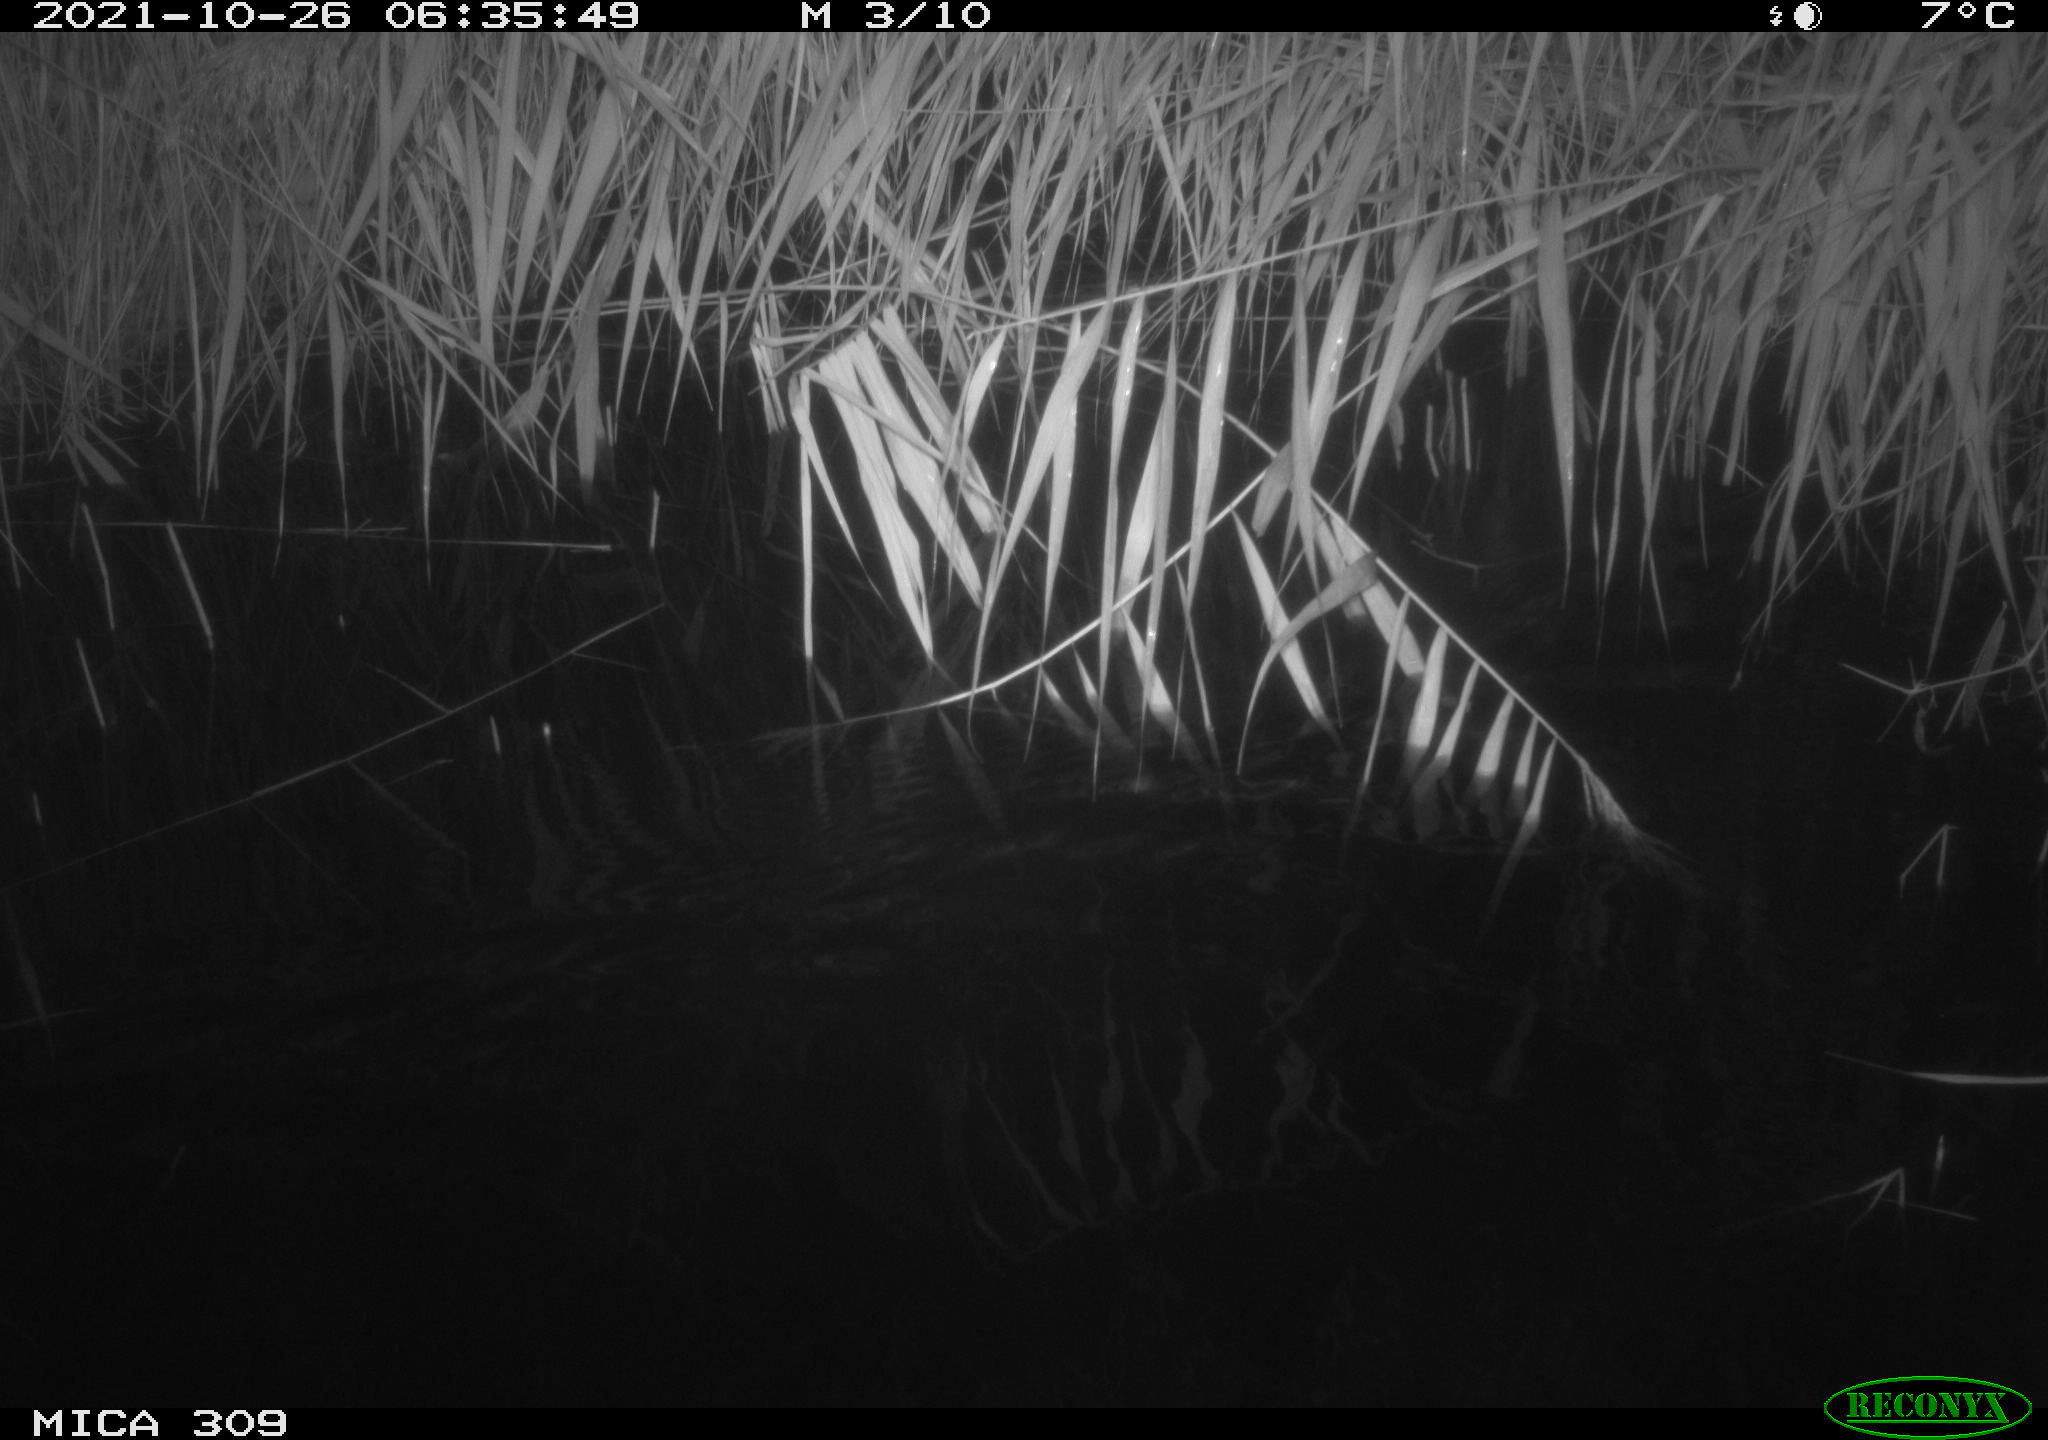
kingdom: Animalia
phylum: Chordata
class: Mammalia
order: Rodentia
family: Muridae
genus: Rattus
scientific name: Rattus norvegicus
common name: Brown rat
